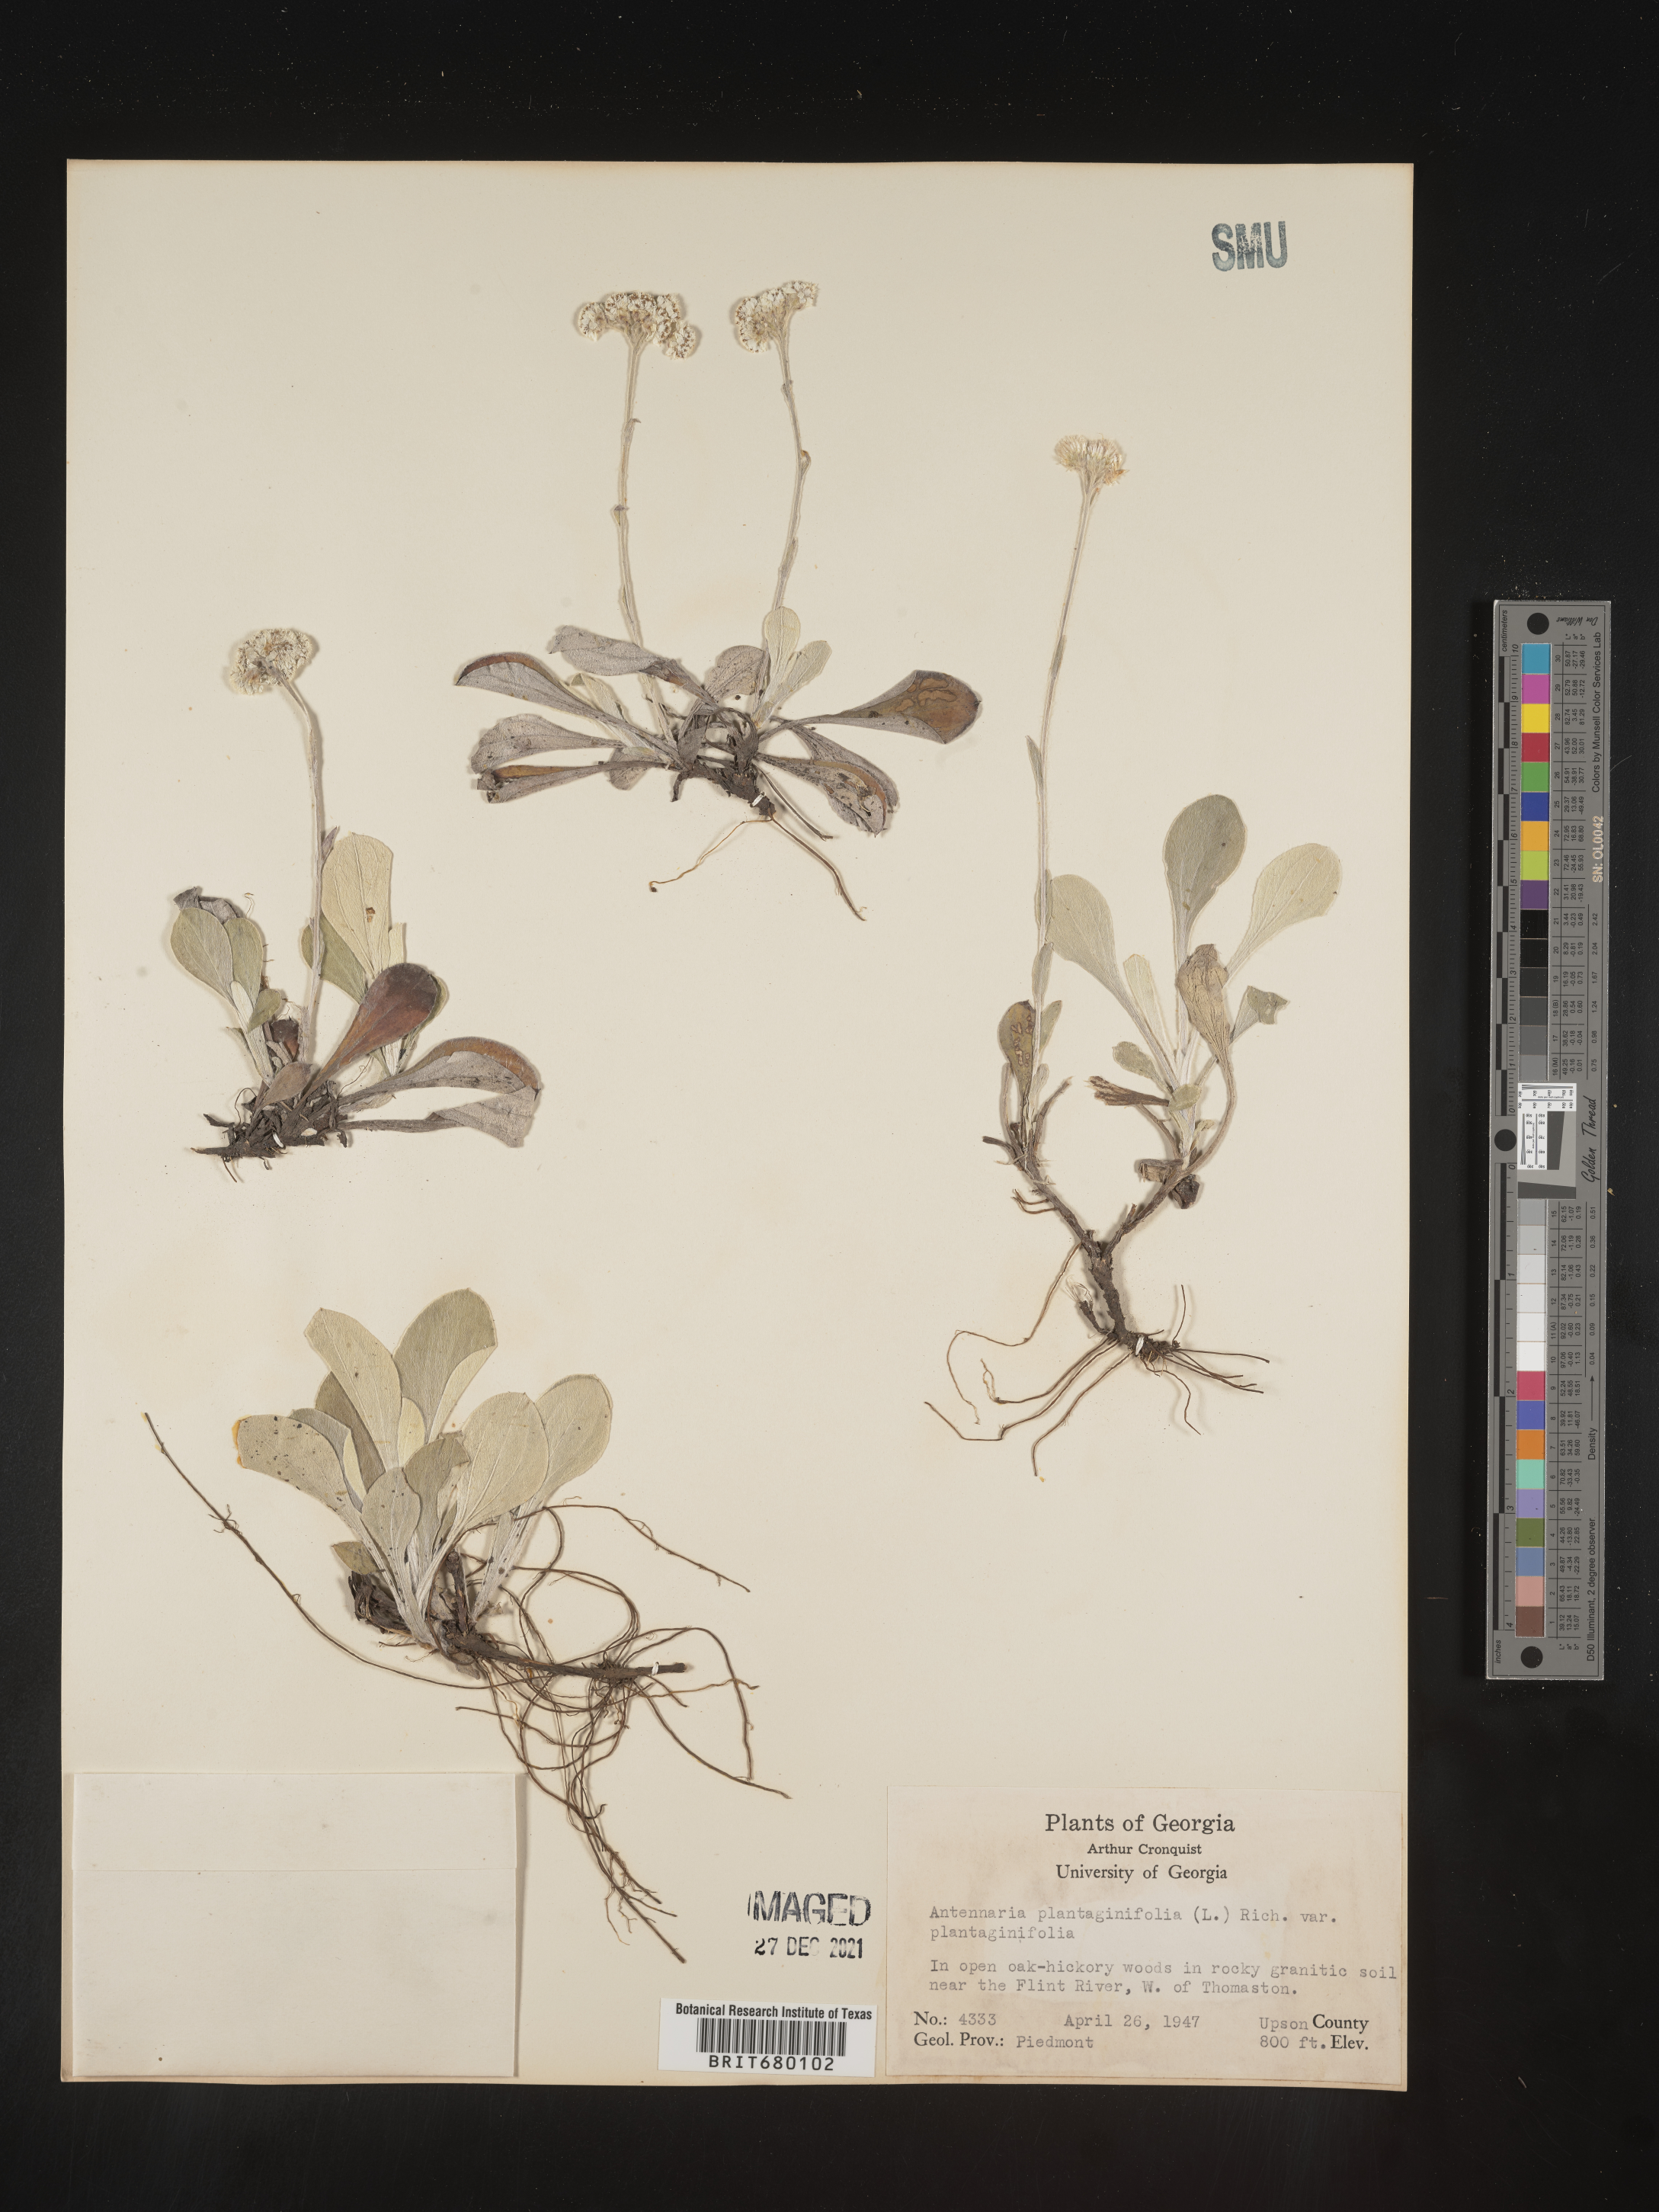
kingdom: Plantae
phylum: Tracheophyta
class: Magnoliopsida
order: Asterales
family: Asteraceae
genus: Antennaria
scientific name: Antennaria plantaginifolia
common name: Plantain-leaved pussytoes
